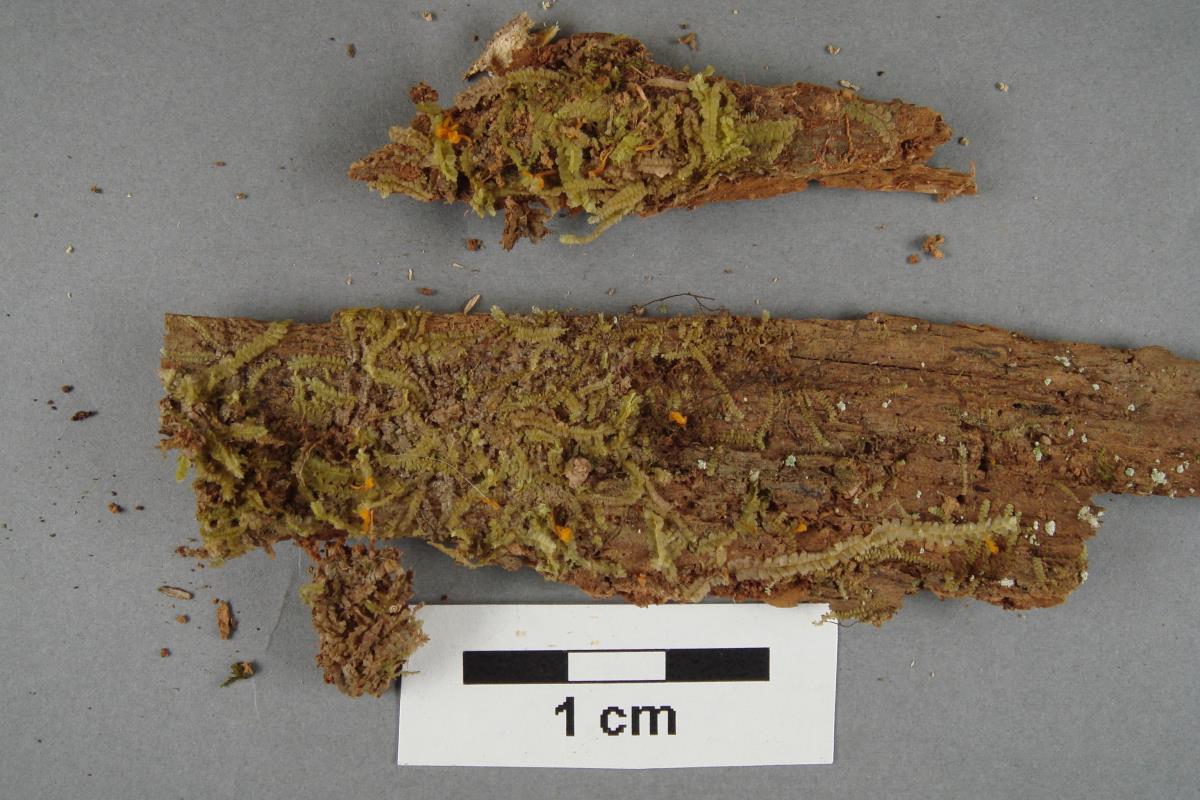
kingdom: Fungi
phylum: Basidiomycota
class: Dacrymycetes
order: Dacrymycetales
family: Dacrymycetaceae
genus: Calocera
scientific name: Calocera cornea
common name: Small stagshorn
